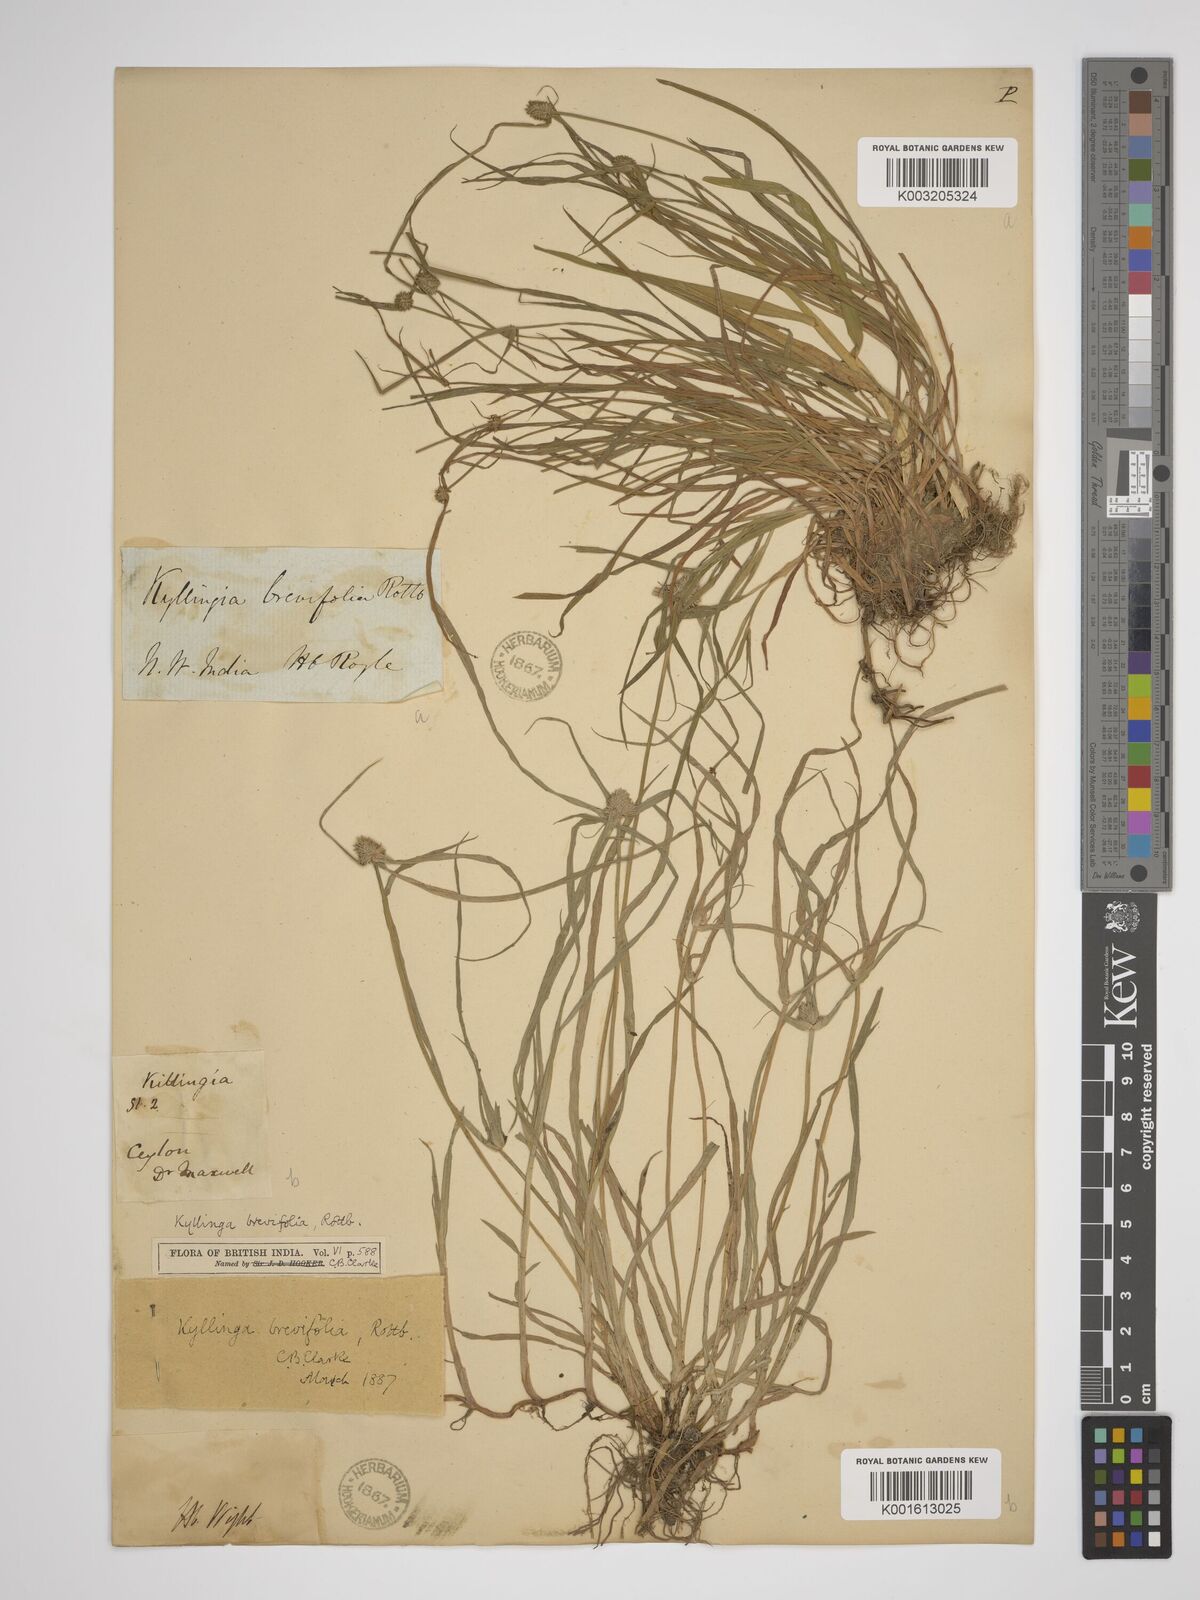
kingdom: Plantae
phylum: Tracheophyta
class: Liliopsida
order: Poales
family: Cyperaceae
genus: Cyperus
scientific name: Cyperus brevifolius
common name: Globe kyllinga
